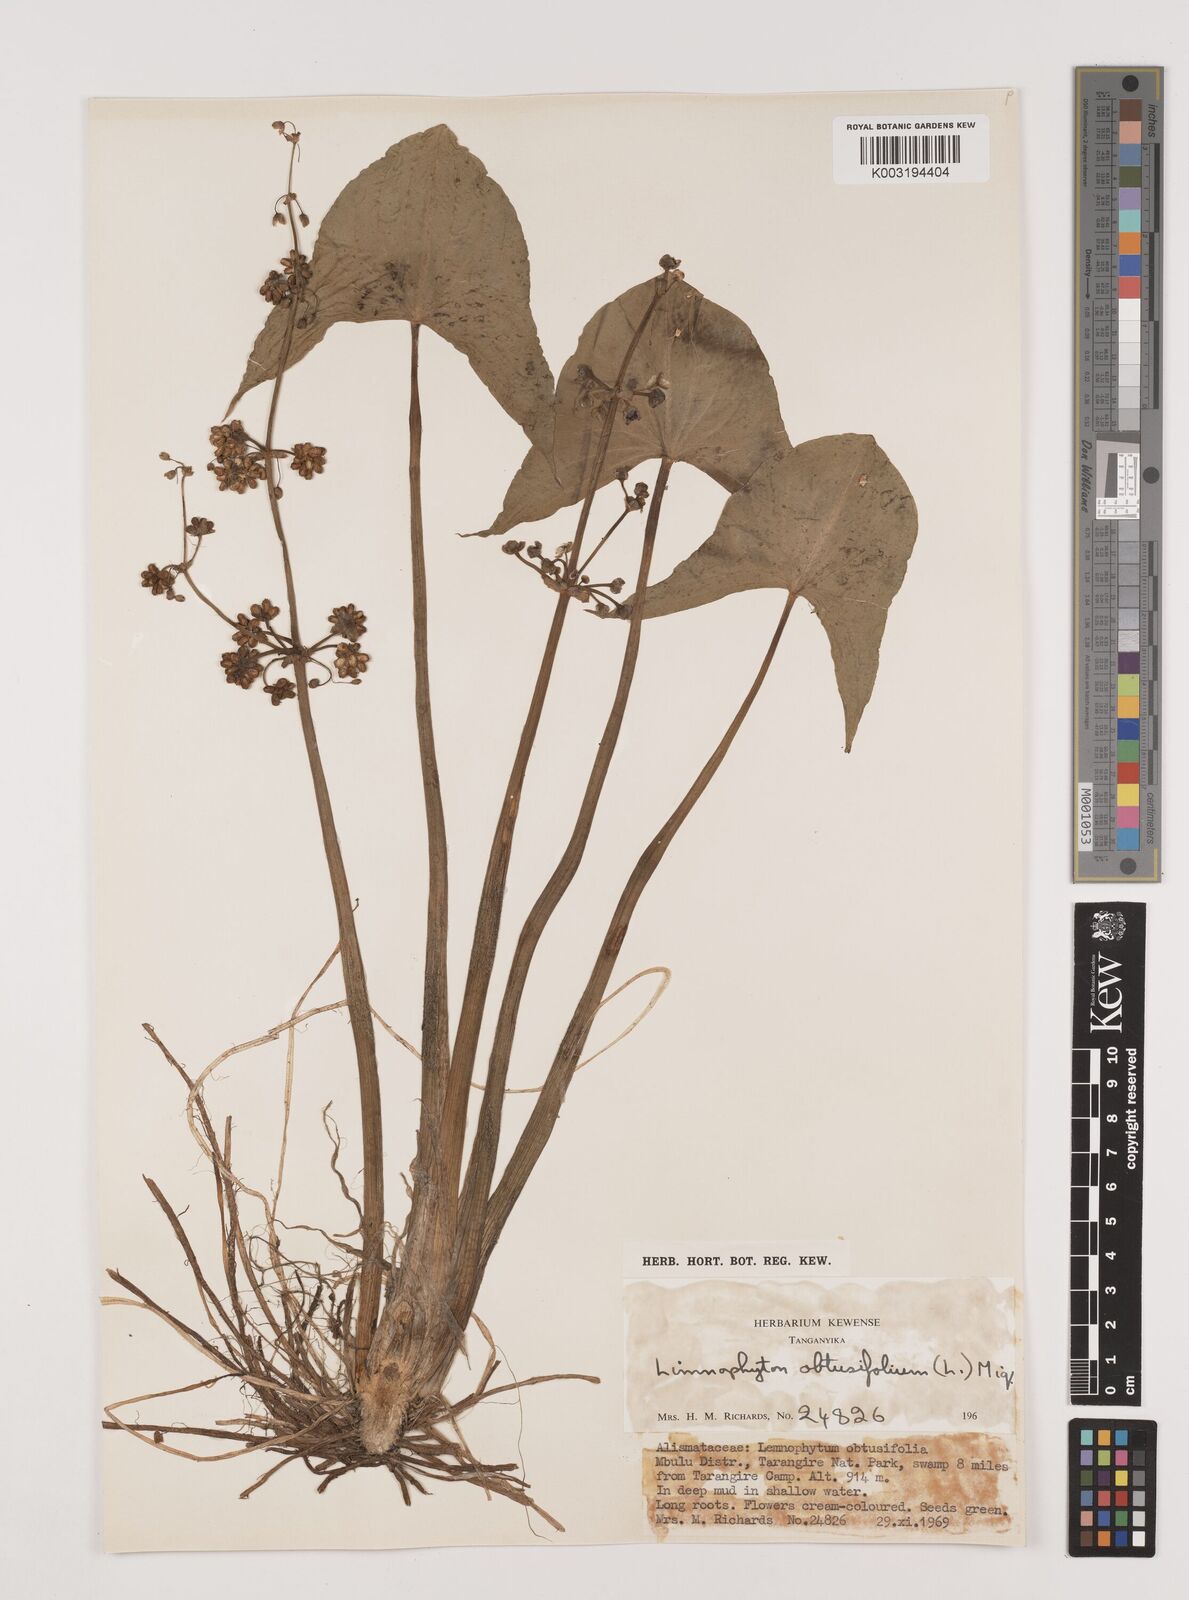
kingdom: Plantae
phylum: Tracheophyta
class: Liliopsida
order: Alismatales
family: Alismataceae
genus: Limnophyton
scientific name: Limnophyton obtusifolium
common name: Arrow head
